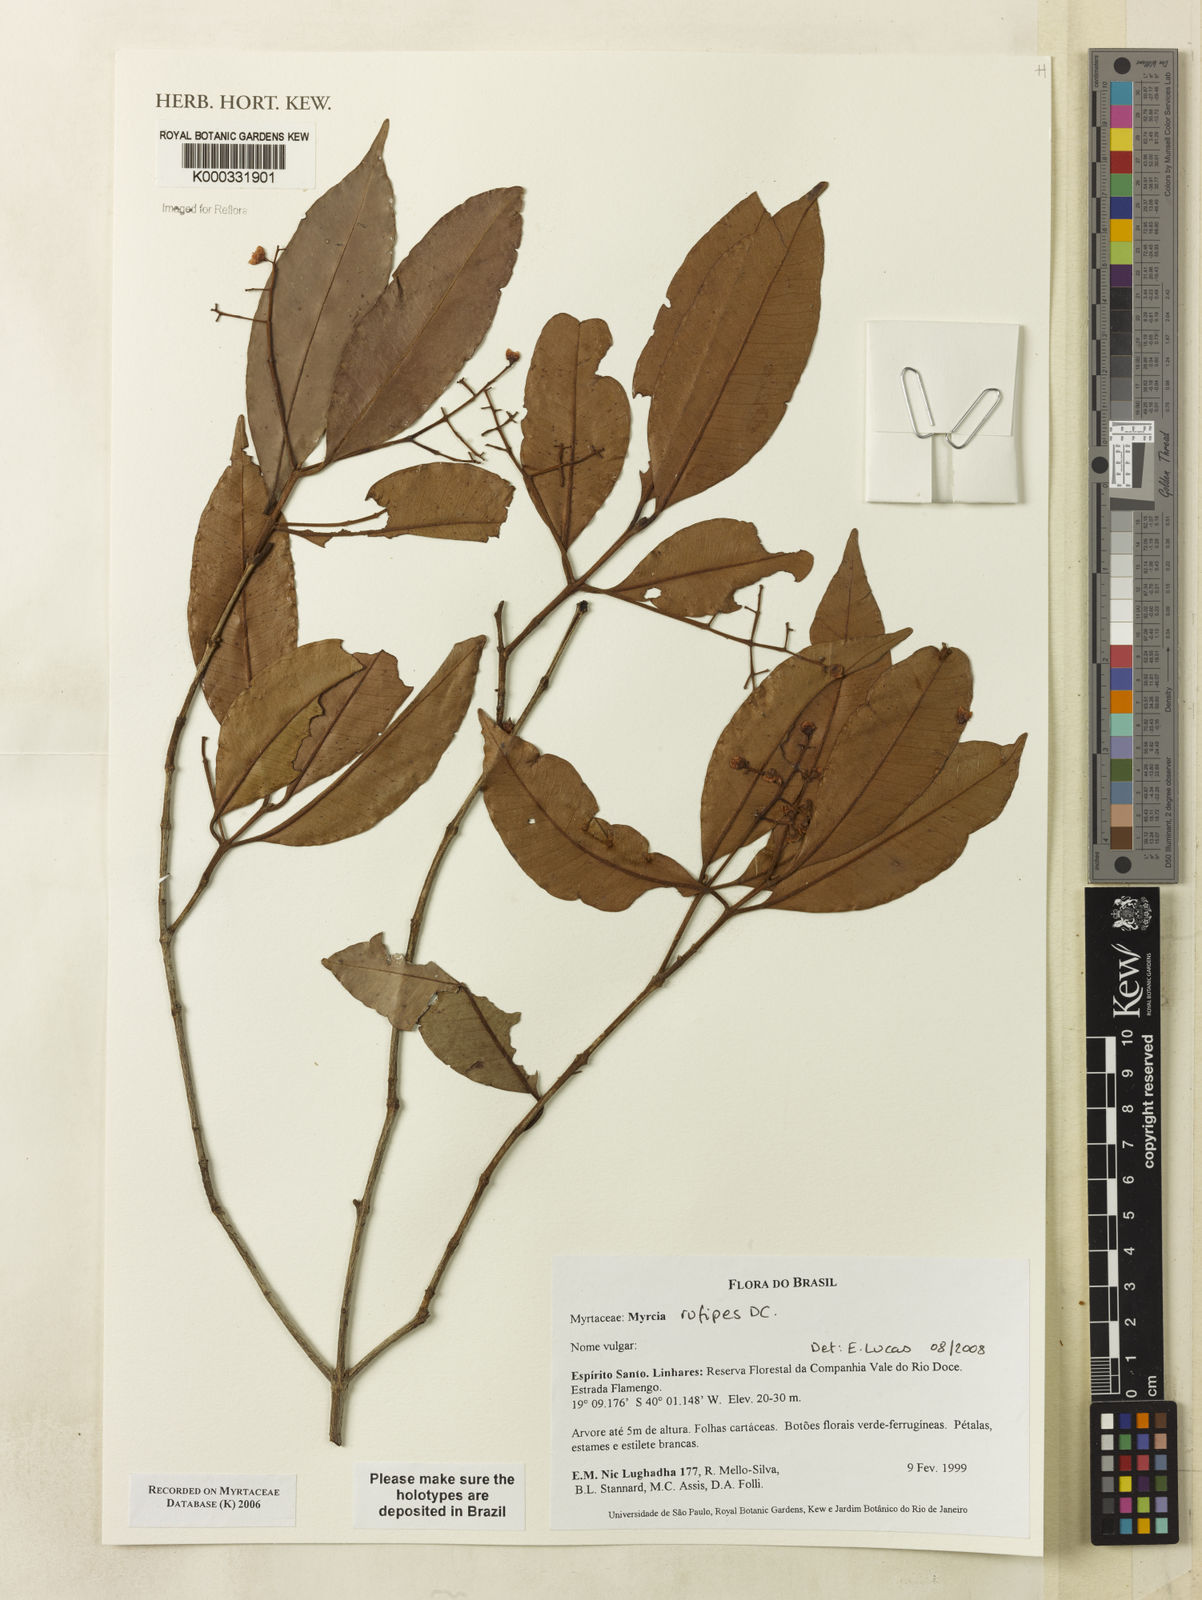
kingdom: Plantae
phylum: Tracheophyta
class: Magnoliopsida
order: Myrtales
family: Myrtaceae
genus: Myrcia
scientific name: Myrcia
